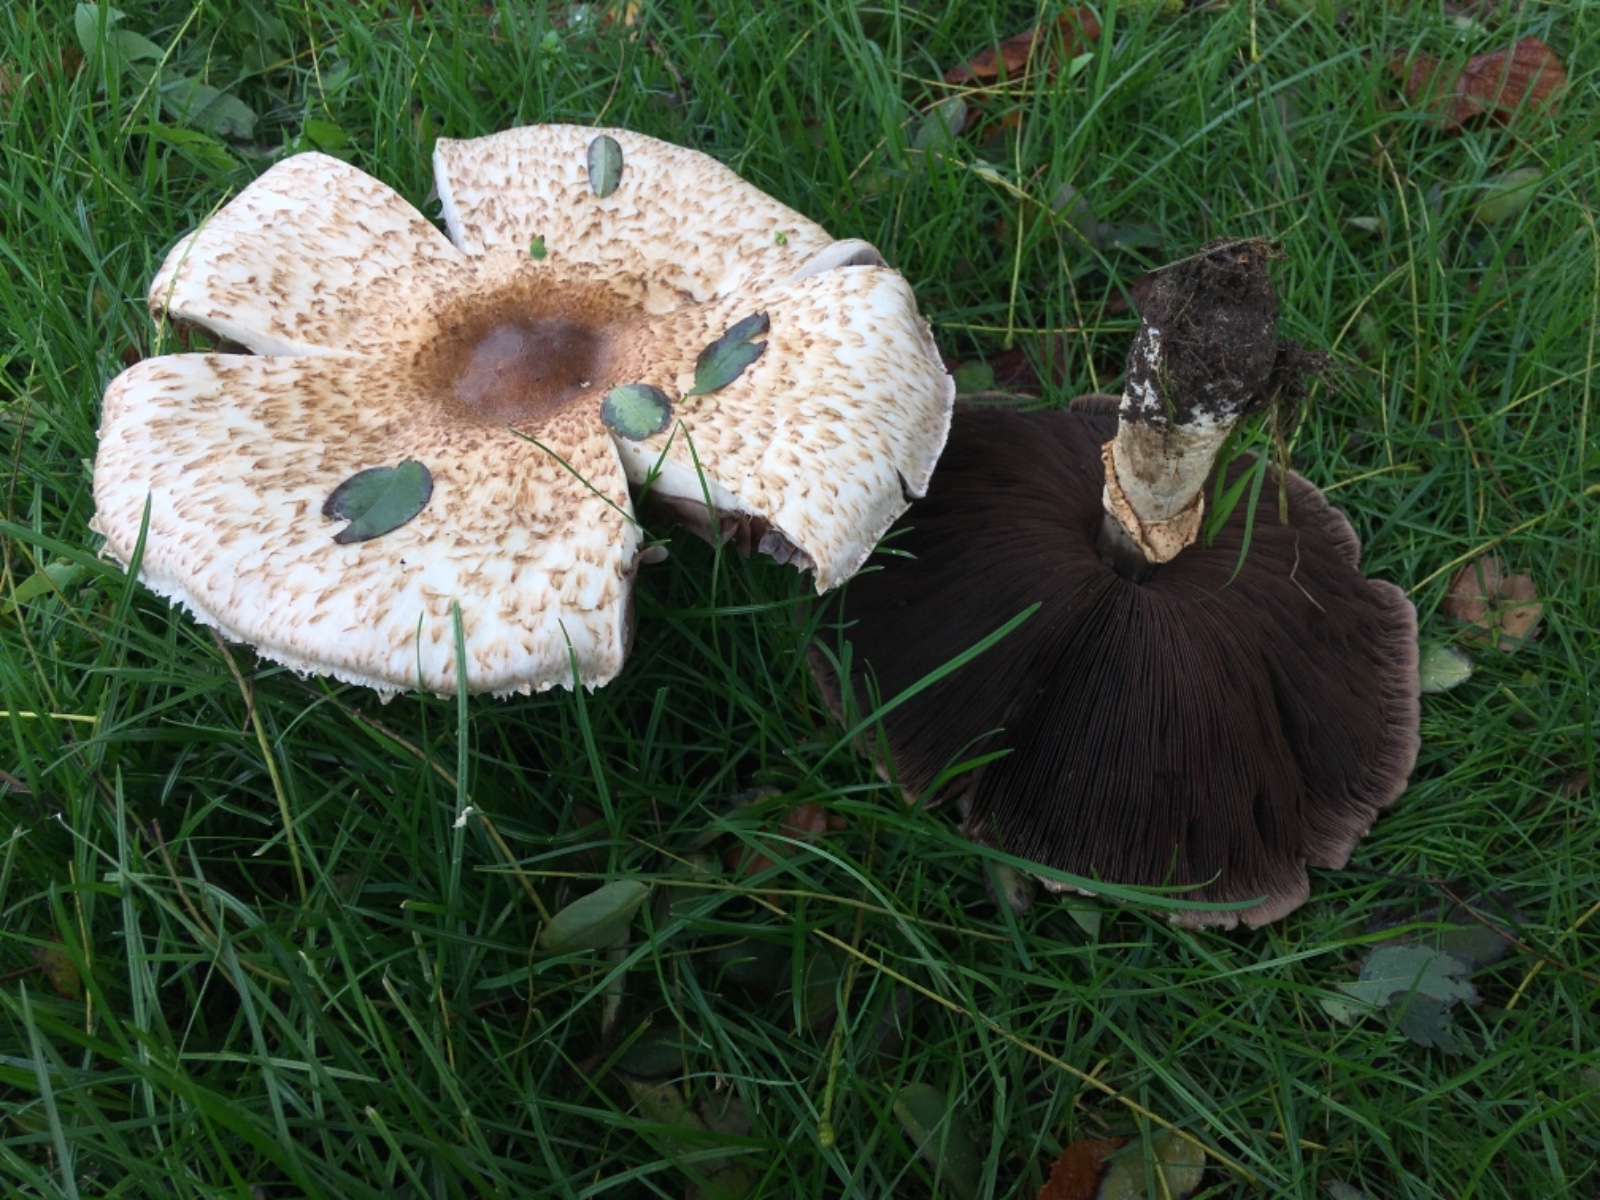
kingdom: Fungi
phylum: Basidiomycota
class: Agaricomycetes
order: Agaricales
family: Agaricaceae
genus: Agaricus
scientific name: Agaricus augustus
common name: prægtig champignon
